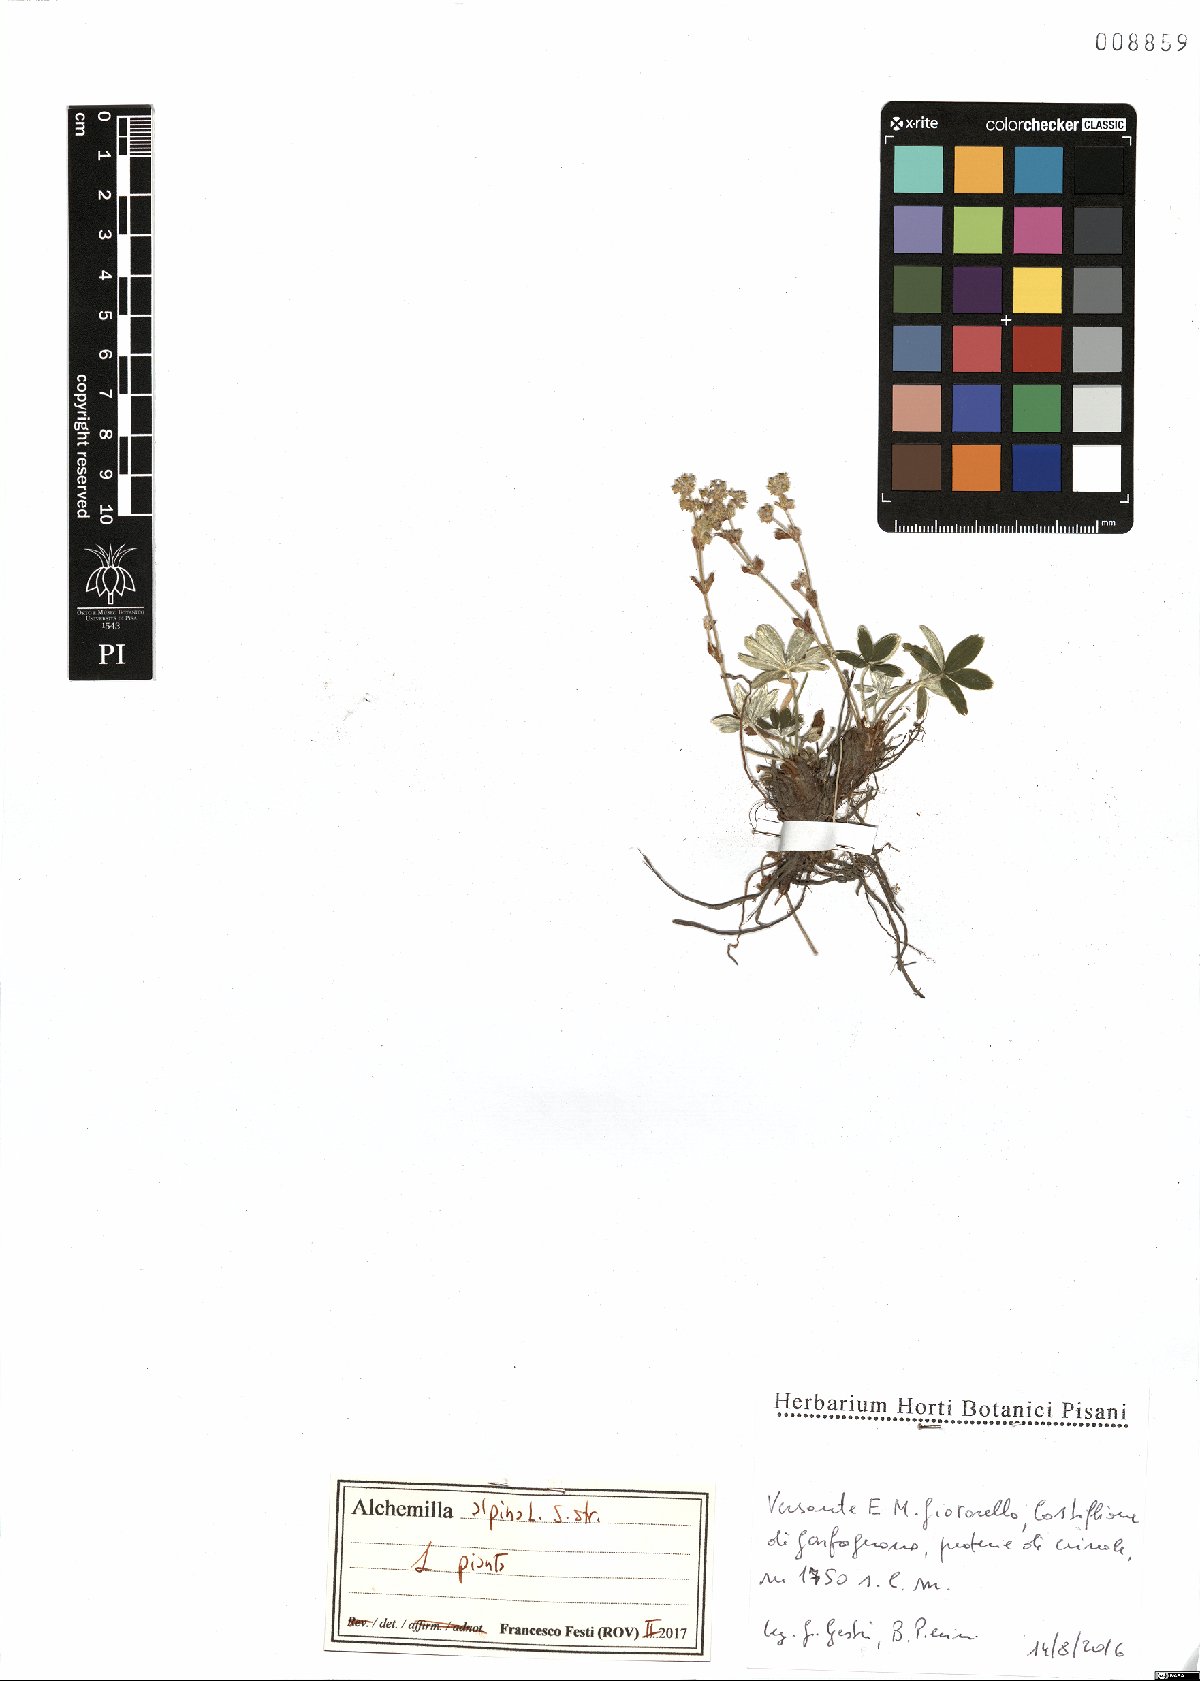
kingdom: Plantae
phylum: Tracheophyta
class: Magnoliopsida
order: Rosales
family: Rosaceae
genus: Alchemilla
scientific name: Alchemilla alpina
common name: Alpine lady's-mantle
